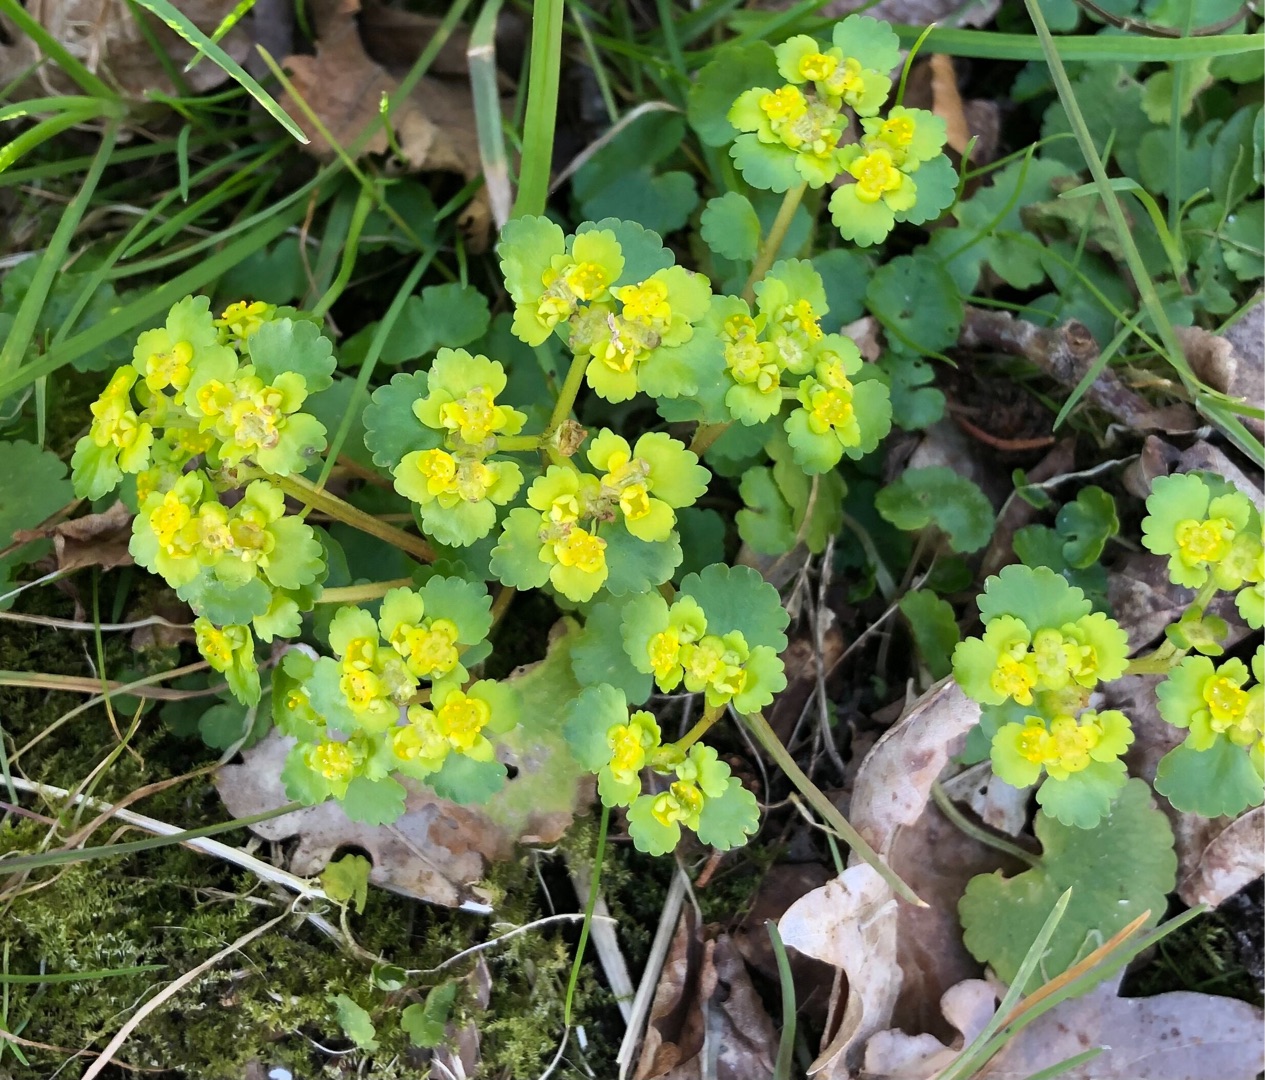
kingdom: Plantae
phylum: Tracheophyta
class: Magnoliopsida
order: Saxifragales
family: Saxifragaceae
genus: Chrysosplenium
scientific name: Chrysosplenium alternifolium
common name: Almindelig milturt
